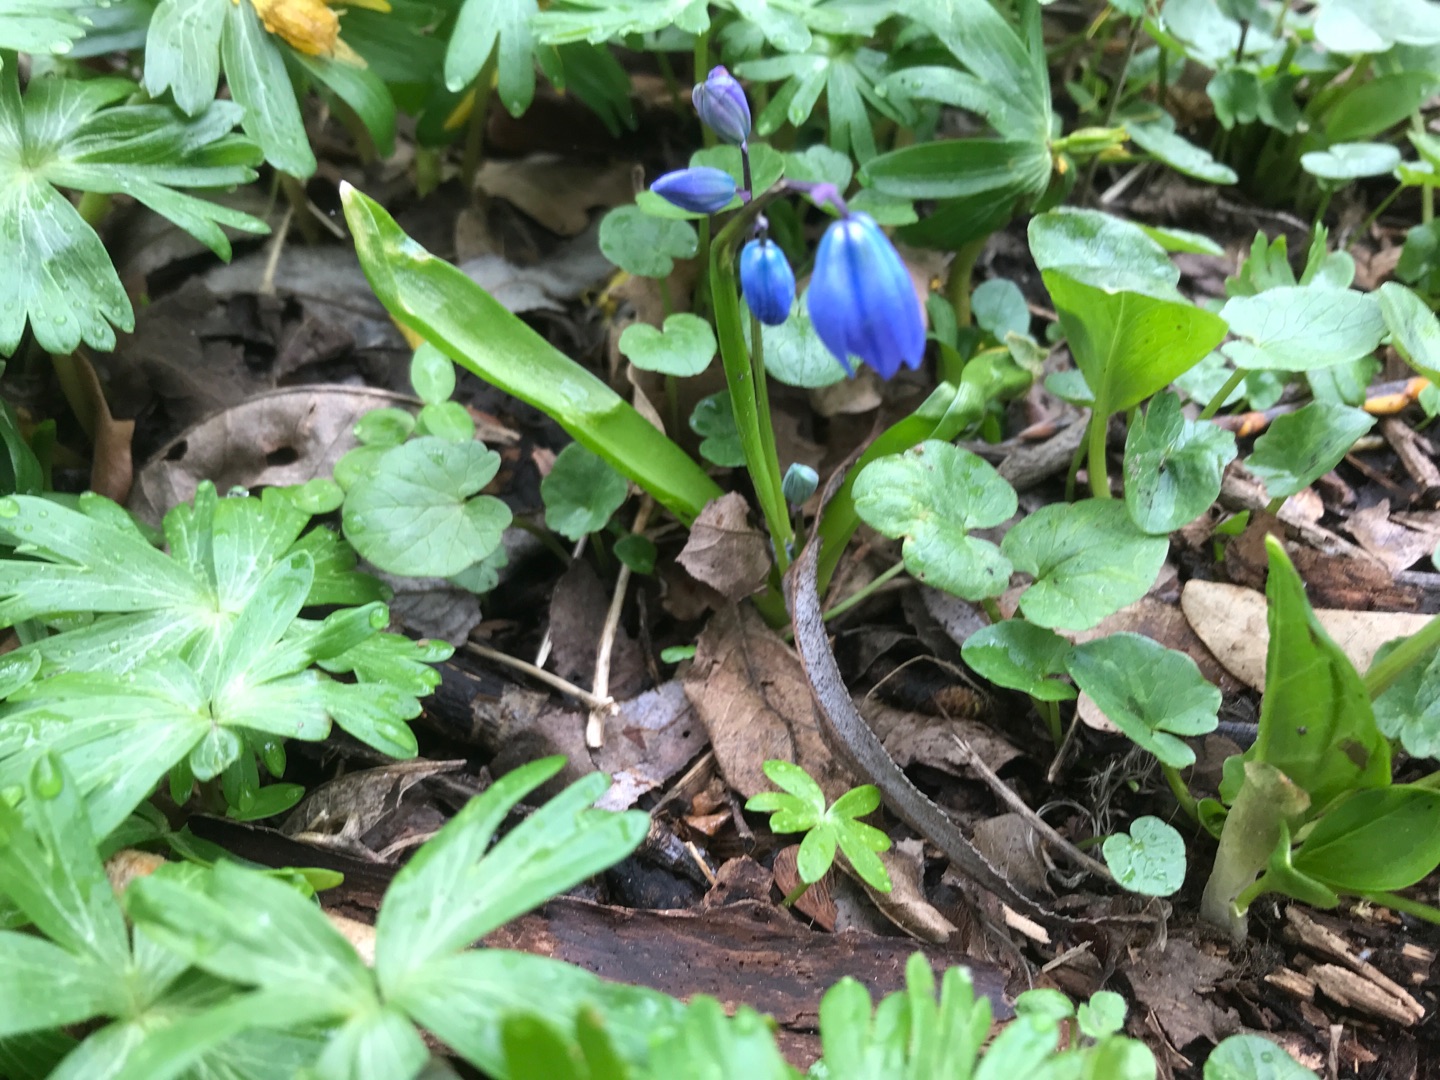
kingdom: Plantae
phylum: Tracheophyta
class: Liliopsida
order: Asparagales
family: Asparagaceae
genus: Scilla
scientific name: Scilla siberica
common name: Russisk skilla
